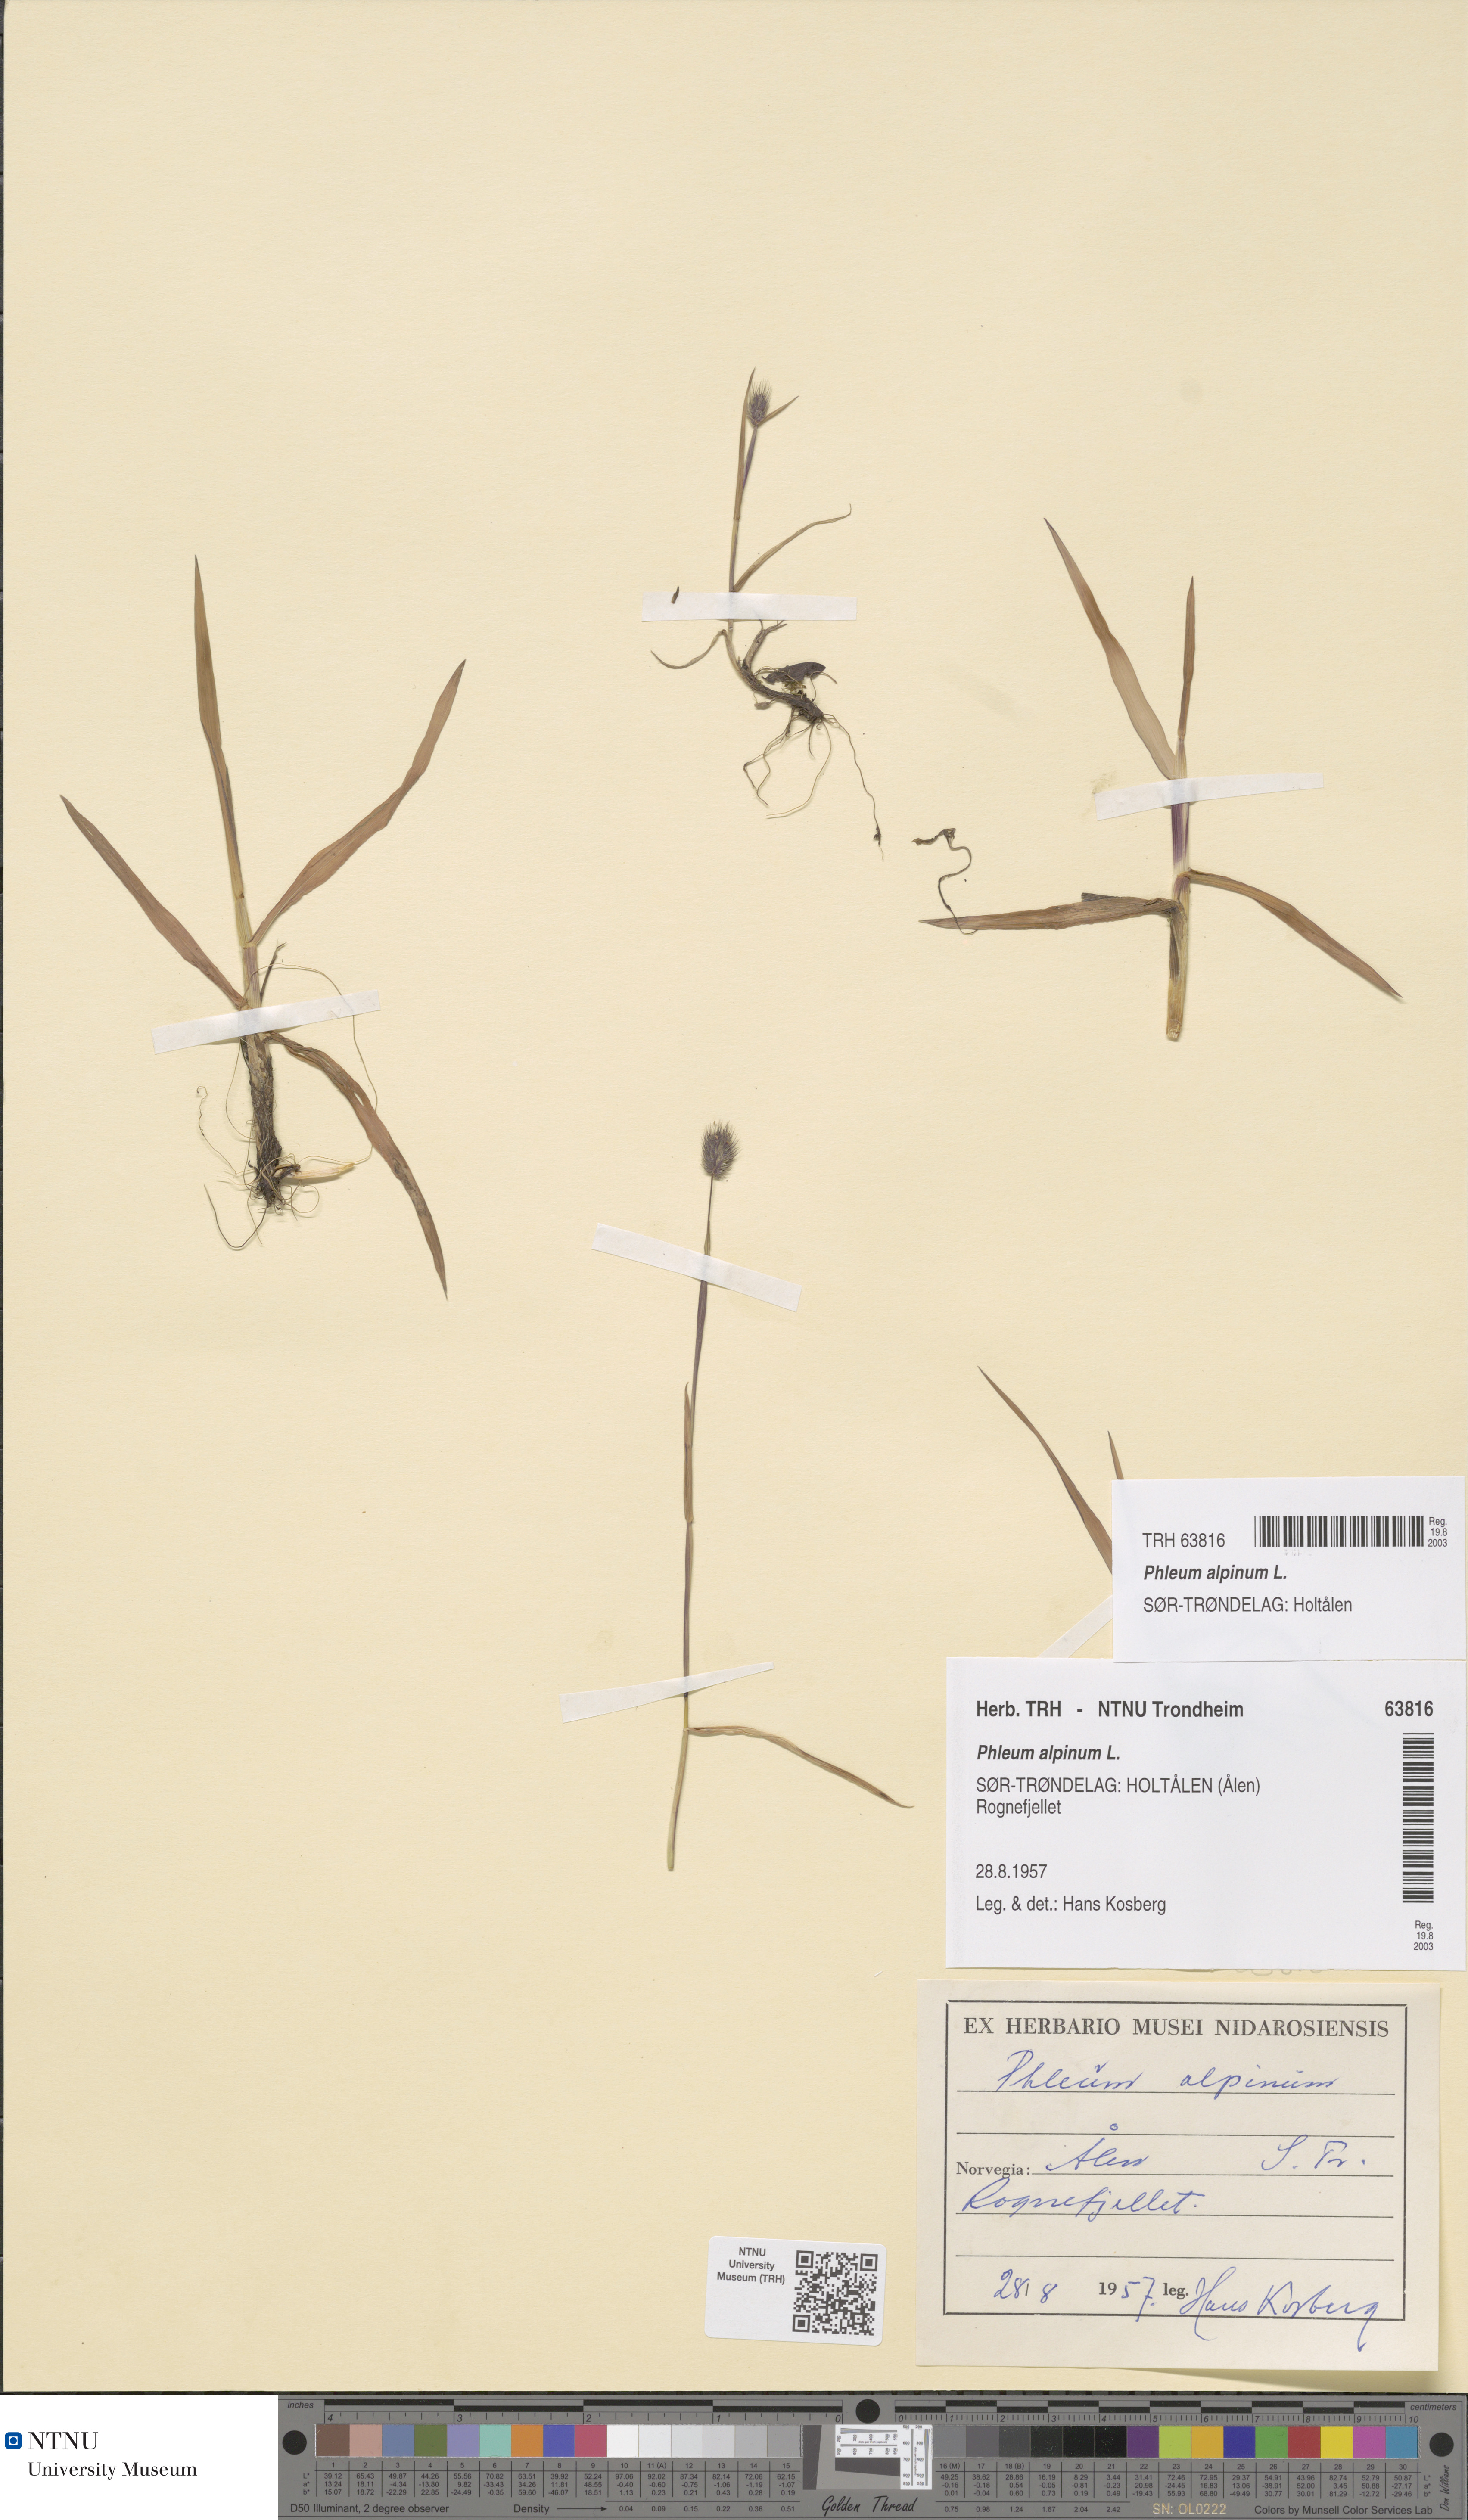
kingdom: Plantae
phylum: Tracheophyta
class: Liliopsida
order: Poales
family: Poaceae
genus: Phleum
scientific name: Phleum alpinum
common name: Alpine cat's-tail
